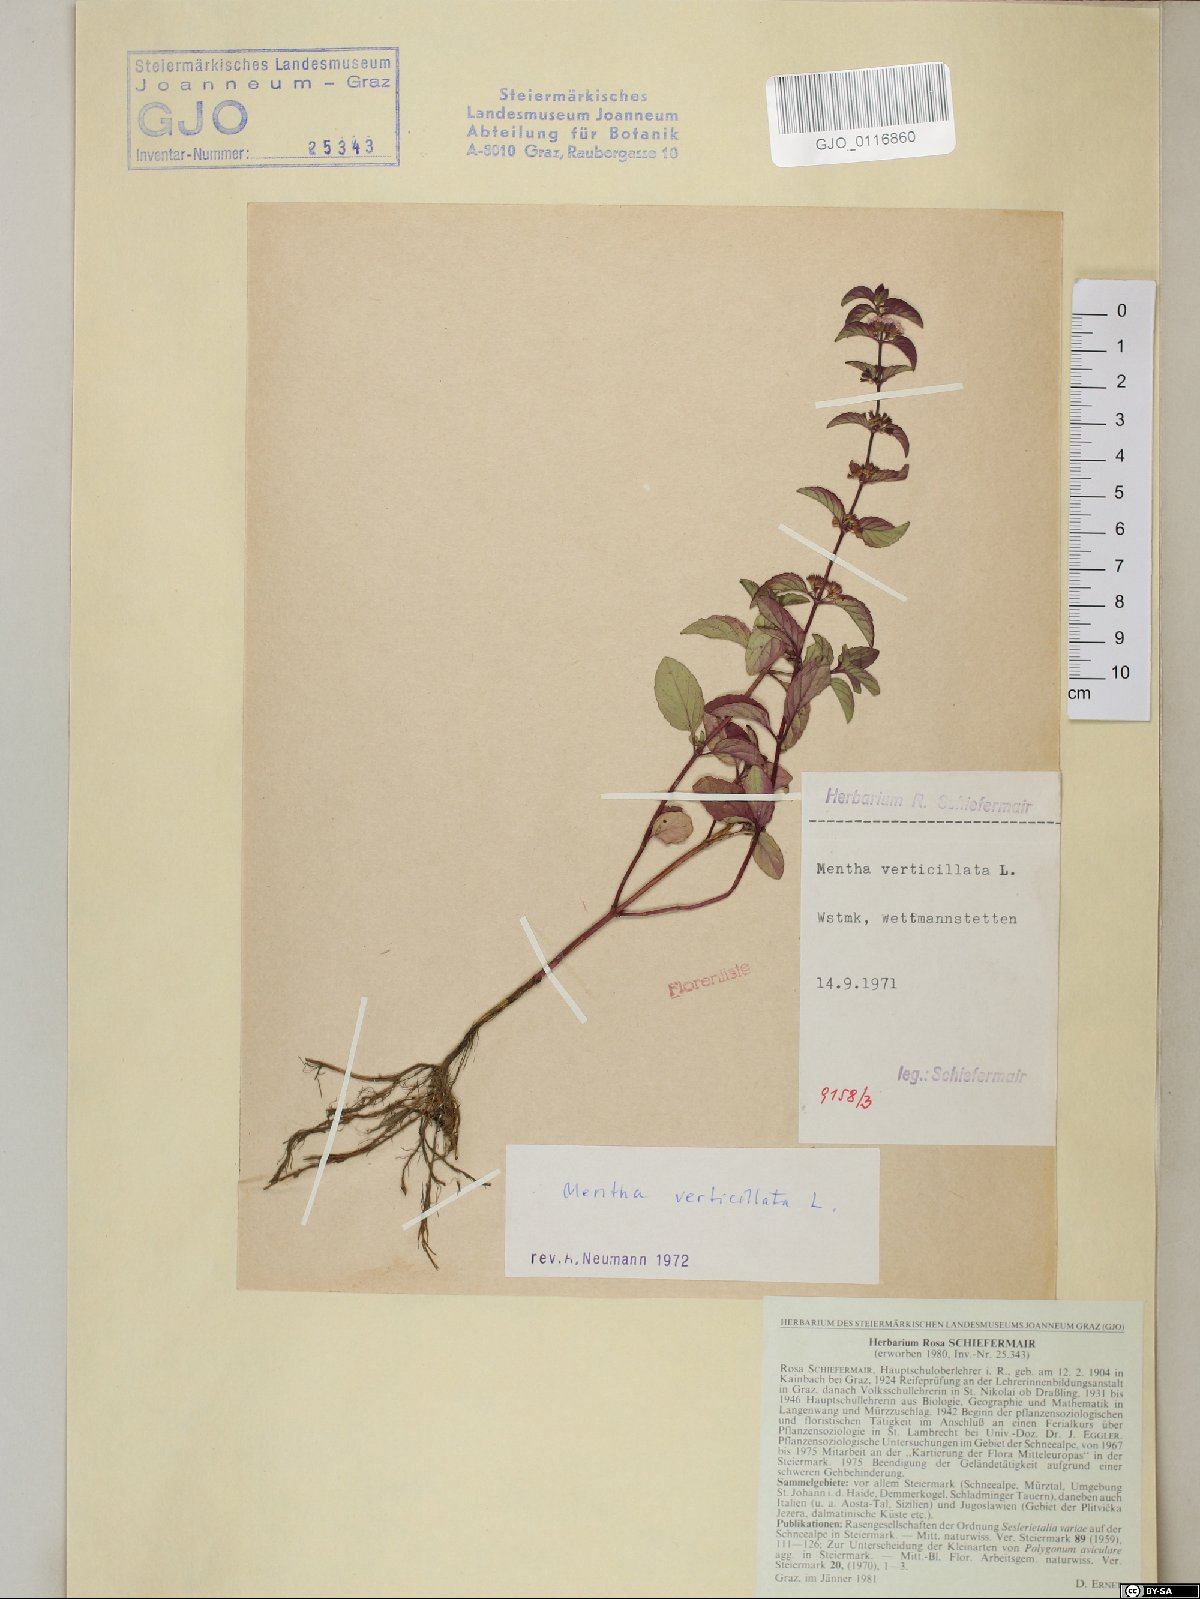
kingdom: Plantae
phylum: Tracheophyta
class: Magnoliopsida
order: Lamiales
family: Lamiaceae
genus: Mentha
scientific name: Mentha verticillata
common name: Mint
